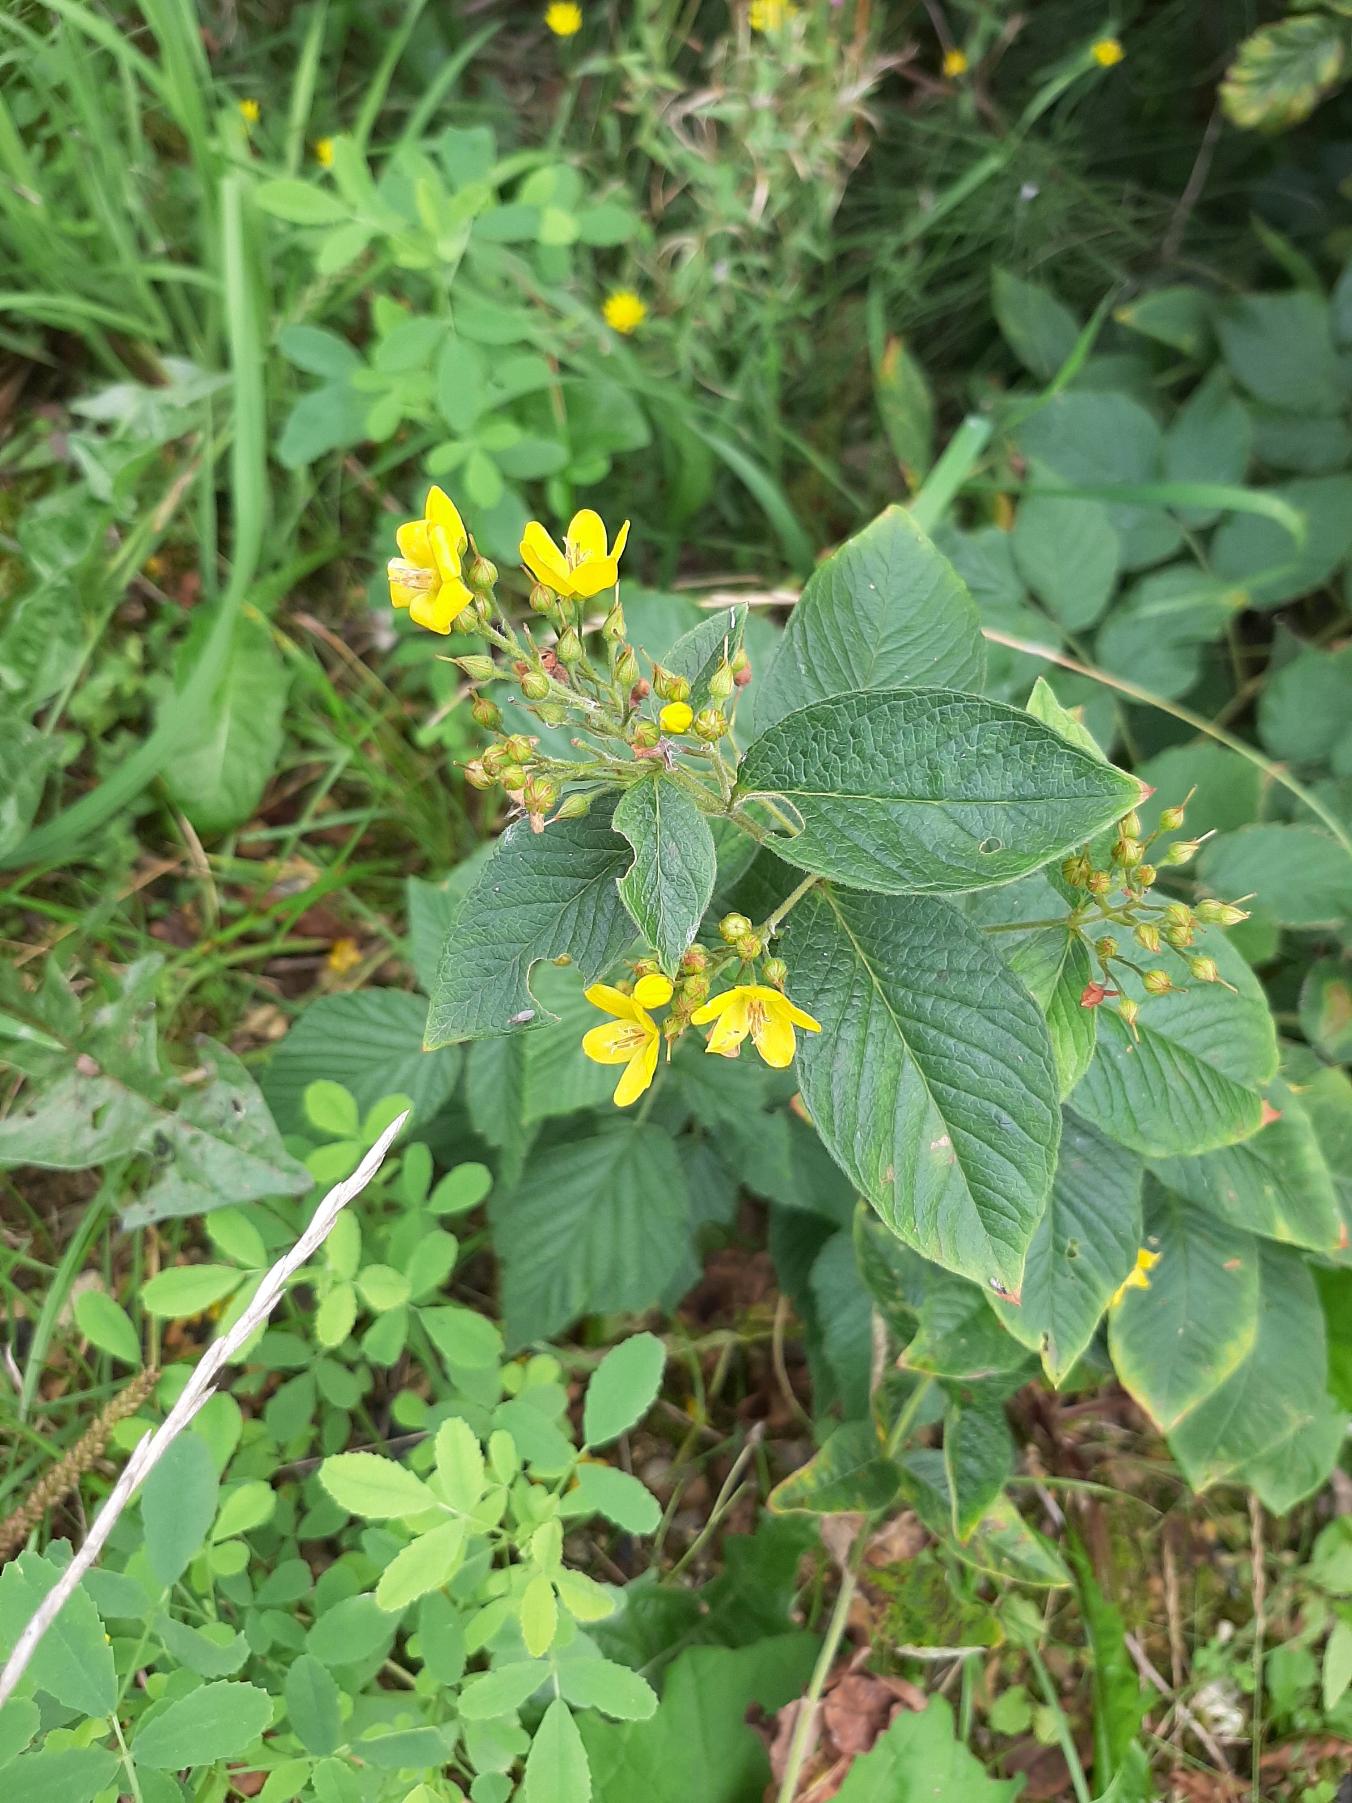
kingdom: Plantae
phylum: Tracheophyta
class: Magnoliopsida
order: Ericales
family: Primulaceae
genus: Lysimachia
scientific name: Lysimachia vulgaris
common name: Almindelig fredløs
